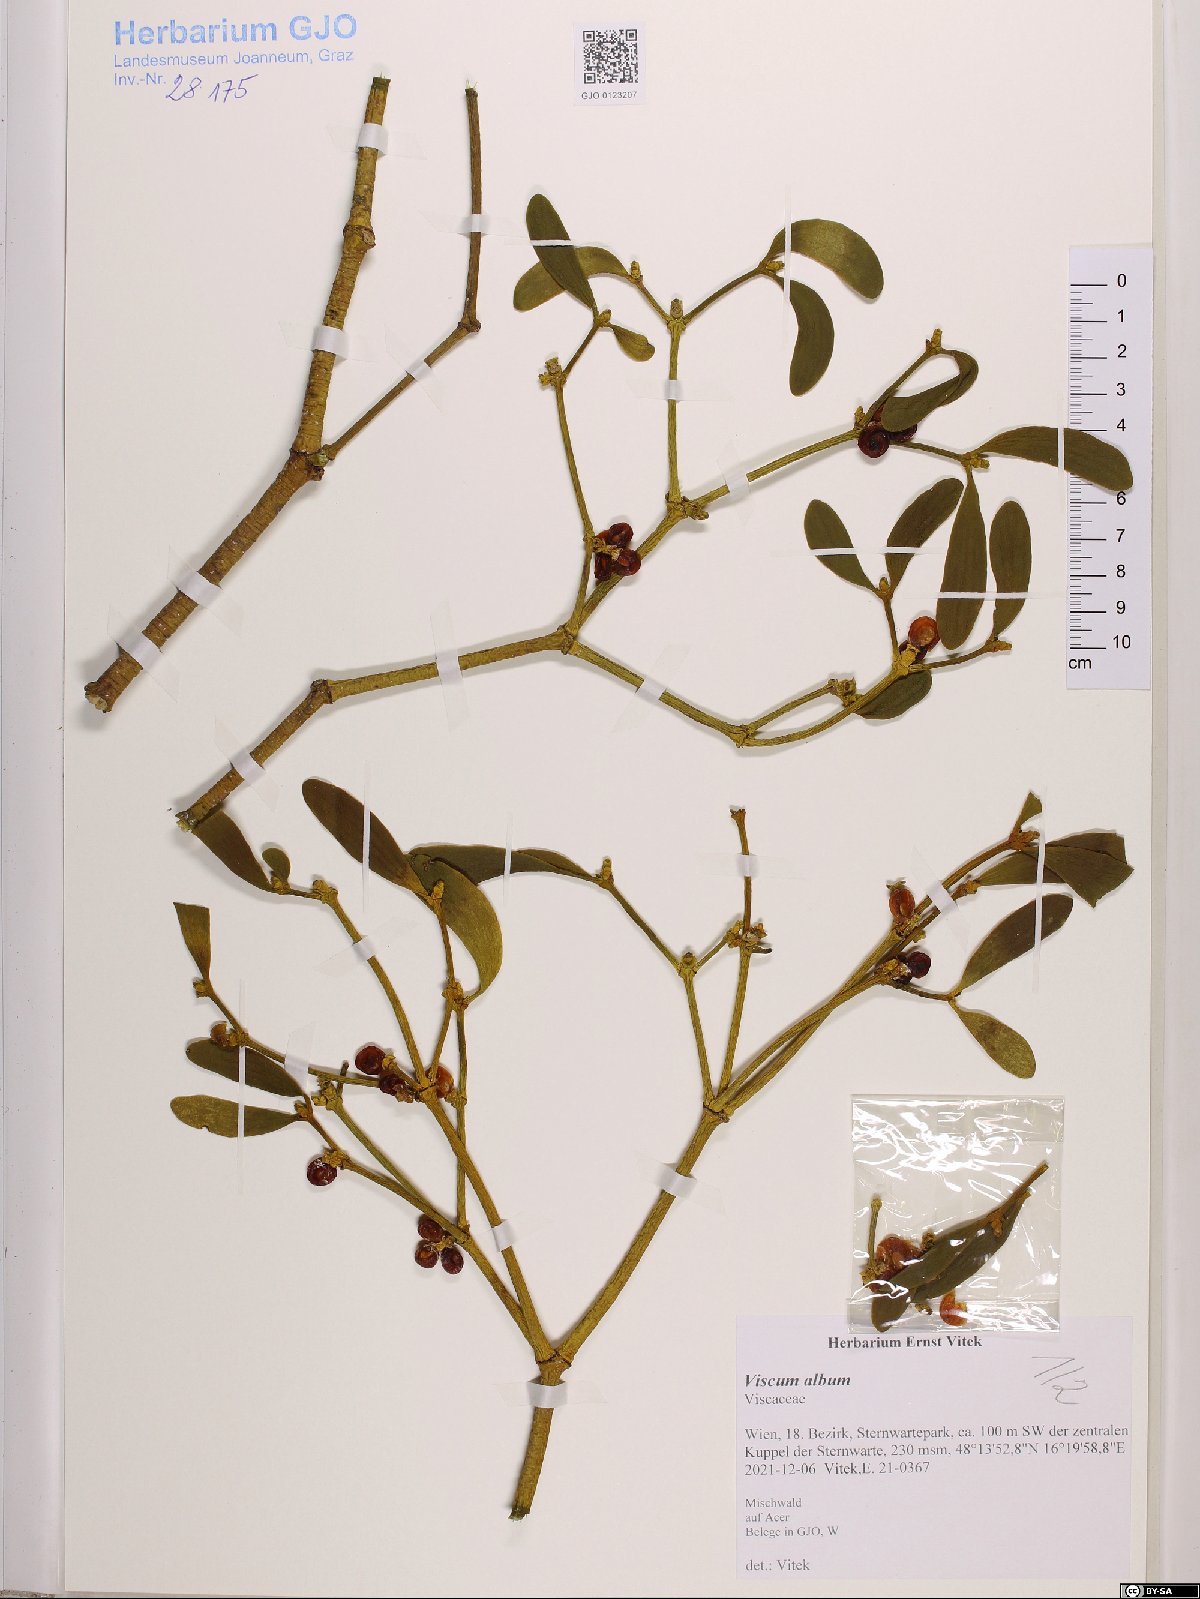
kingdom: Plantae
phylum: Tracheophyta
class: Magnoliopsida
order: Santalales
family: Viscaceae
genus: Viscum
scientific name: Viscum album
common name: Mistletoe
